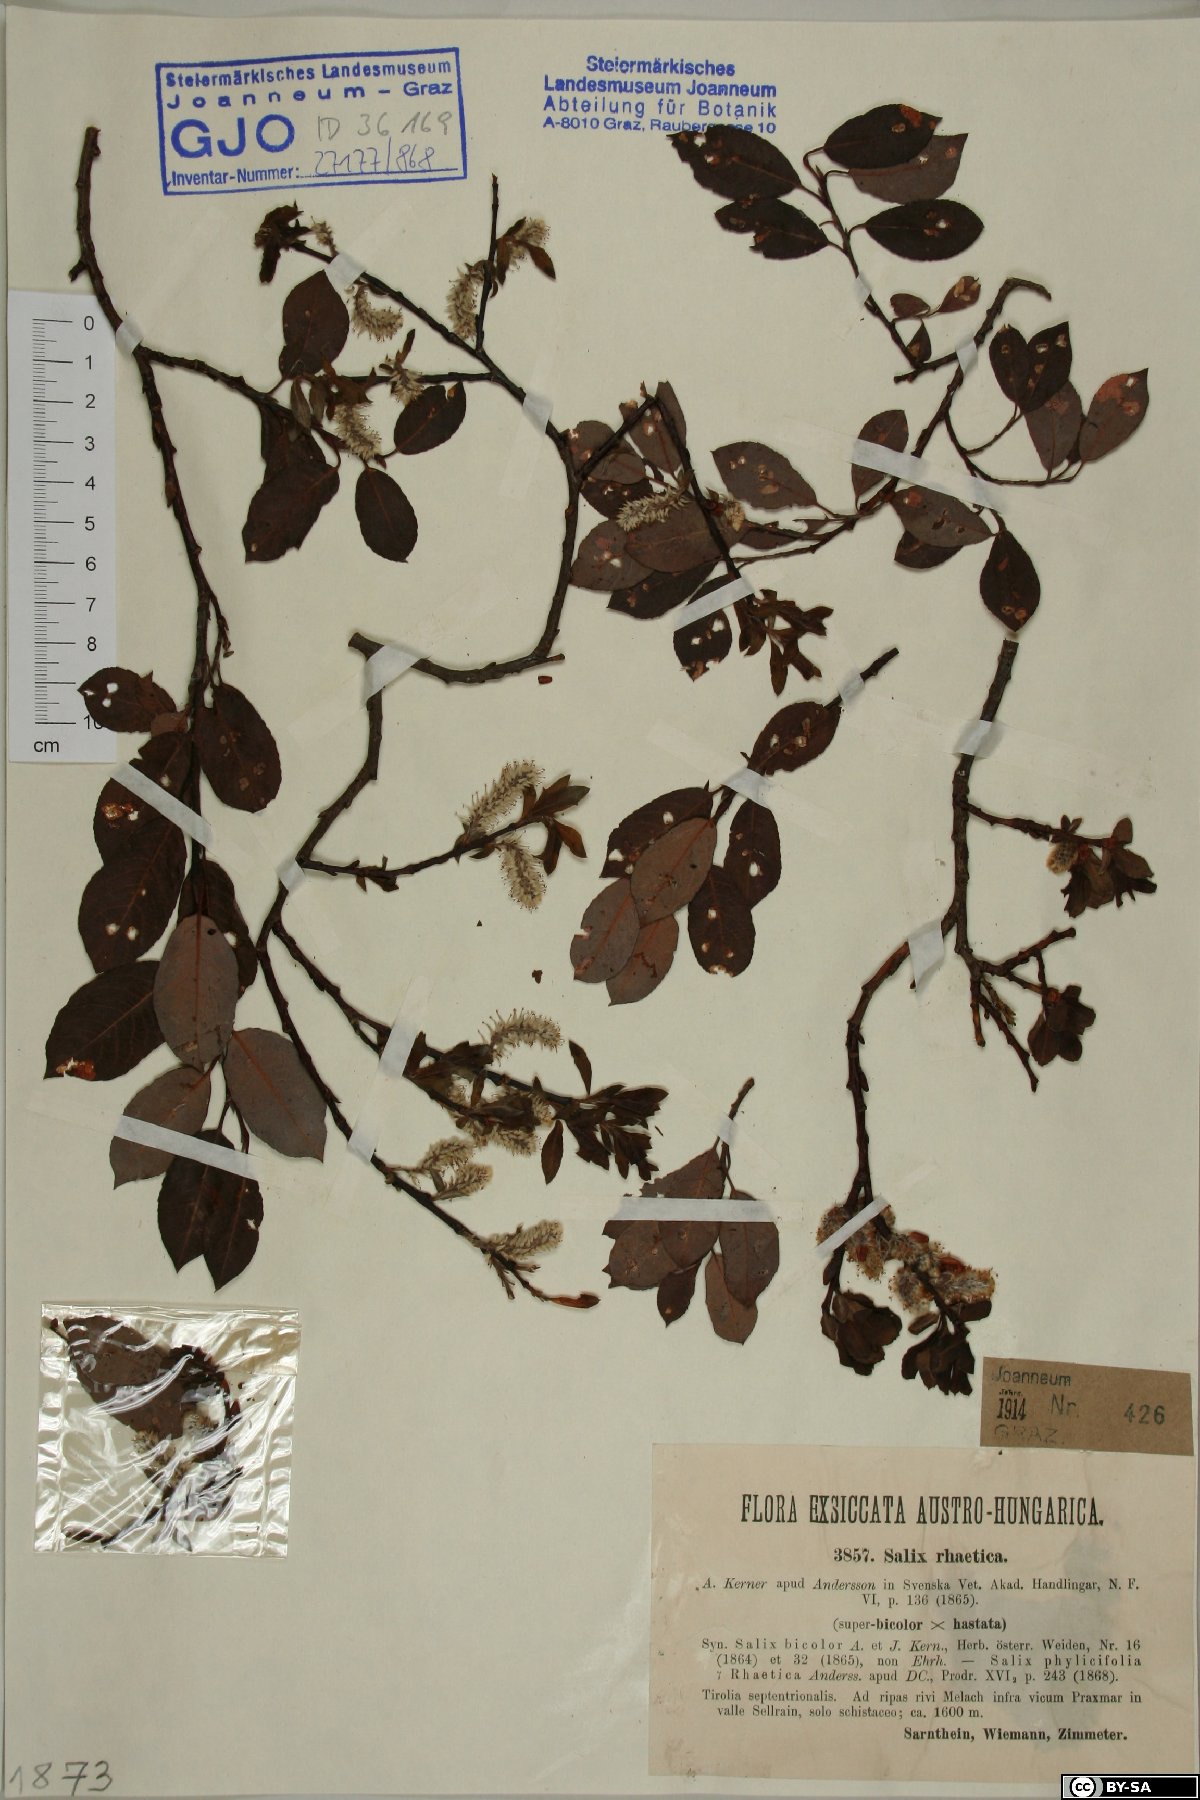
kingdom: Plantae
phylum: Tracheophyta
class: Magnoliopsida
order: Malpighiales
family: Salicaceae
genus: Salix
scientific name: Salix hegetschweileri
